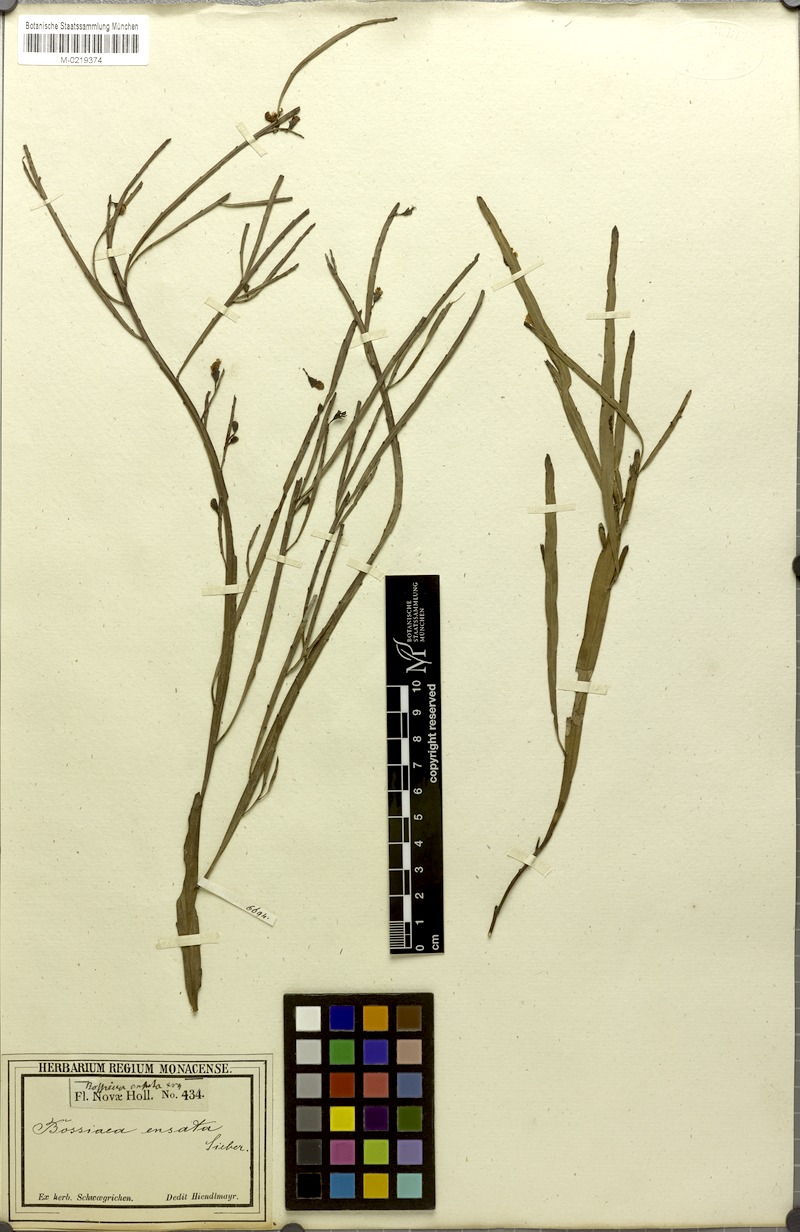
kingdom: Plantae
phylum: Tracheophyta
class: Magnoliopsida
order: Fabales
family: Fabaceae
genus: Bossiaea
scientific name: Bossiaea ensata
